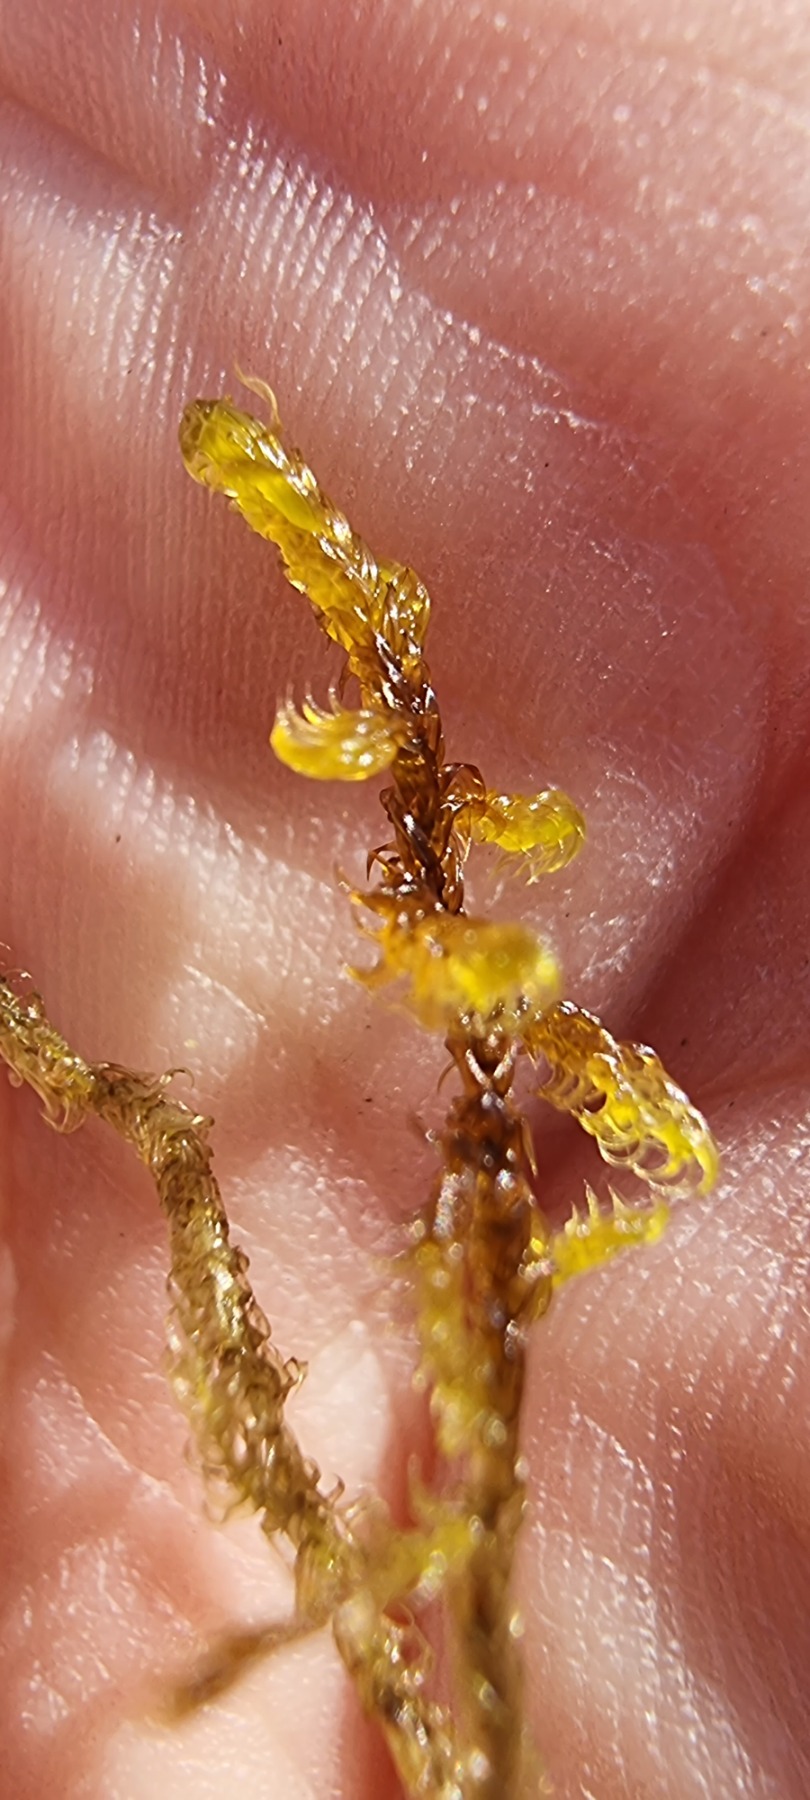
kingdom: Plantae
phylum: Bryophyta
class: Bryopsida
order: Hypnales
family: Scorpidiaceae
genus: Hamatocaulis
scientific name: Hamatocaulis vernicosus
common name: Blank seglmos
